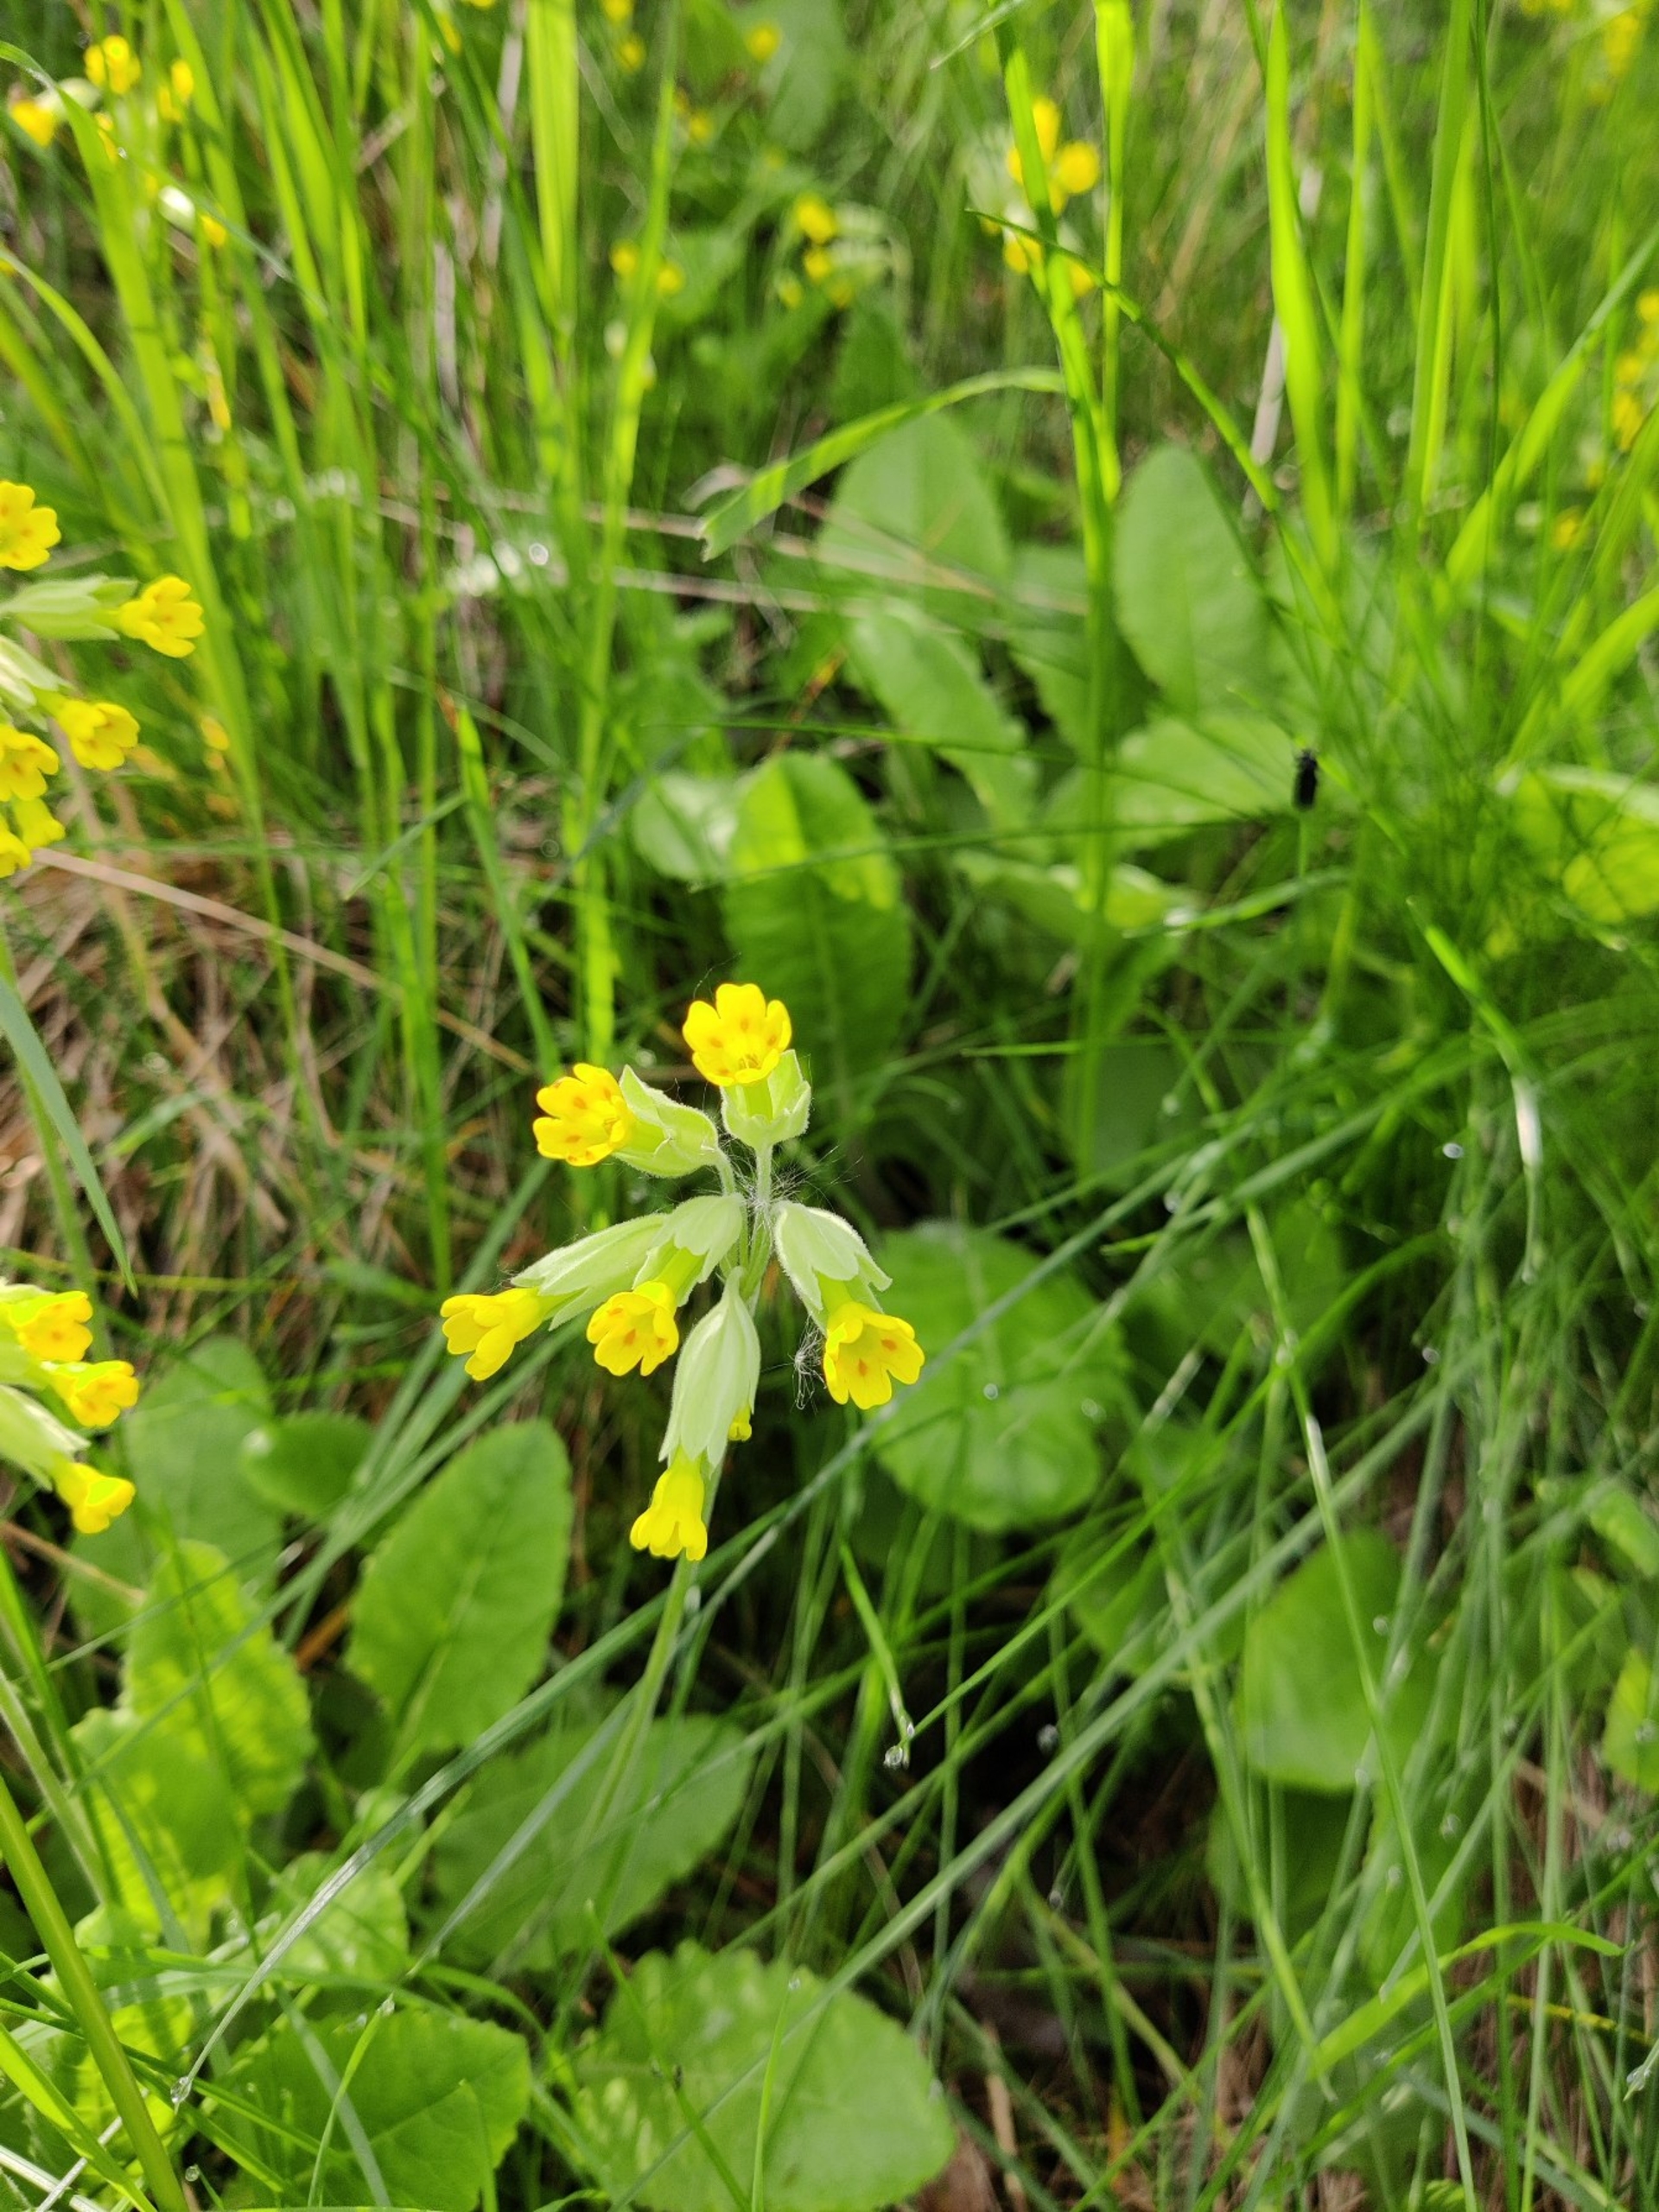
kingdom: Plantae
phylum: Tracheophyta
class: Magnoliopsida
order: Ericales
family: Primulaceae
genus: Primula
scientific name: Primula veris
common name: Hulkravet kodriver
